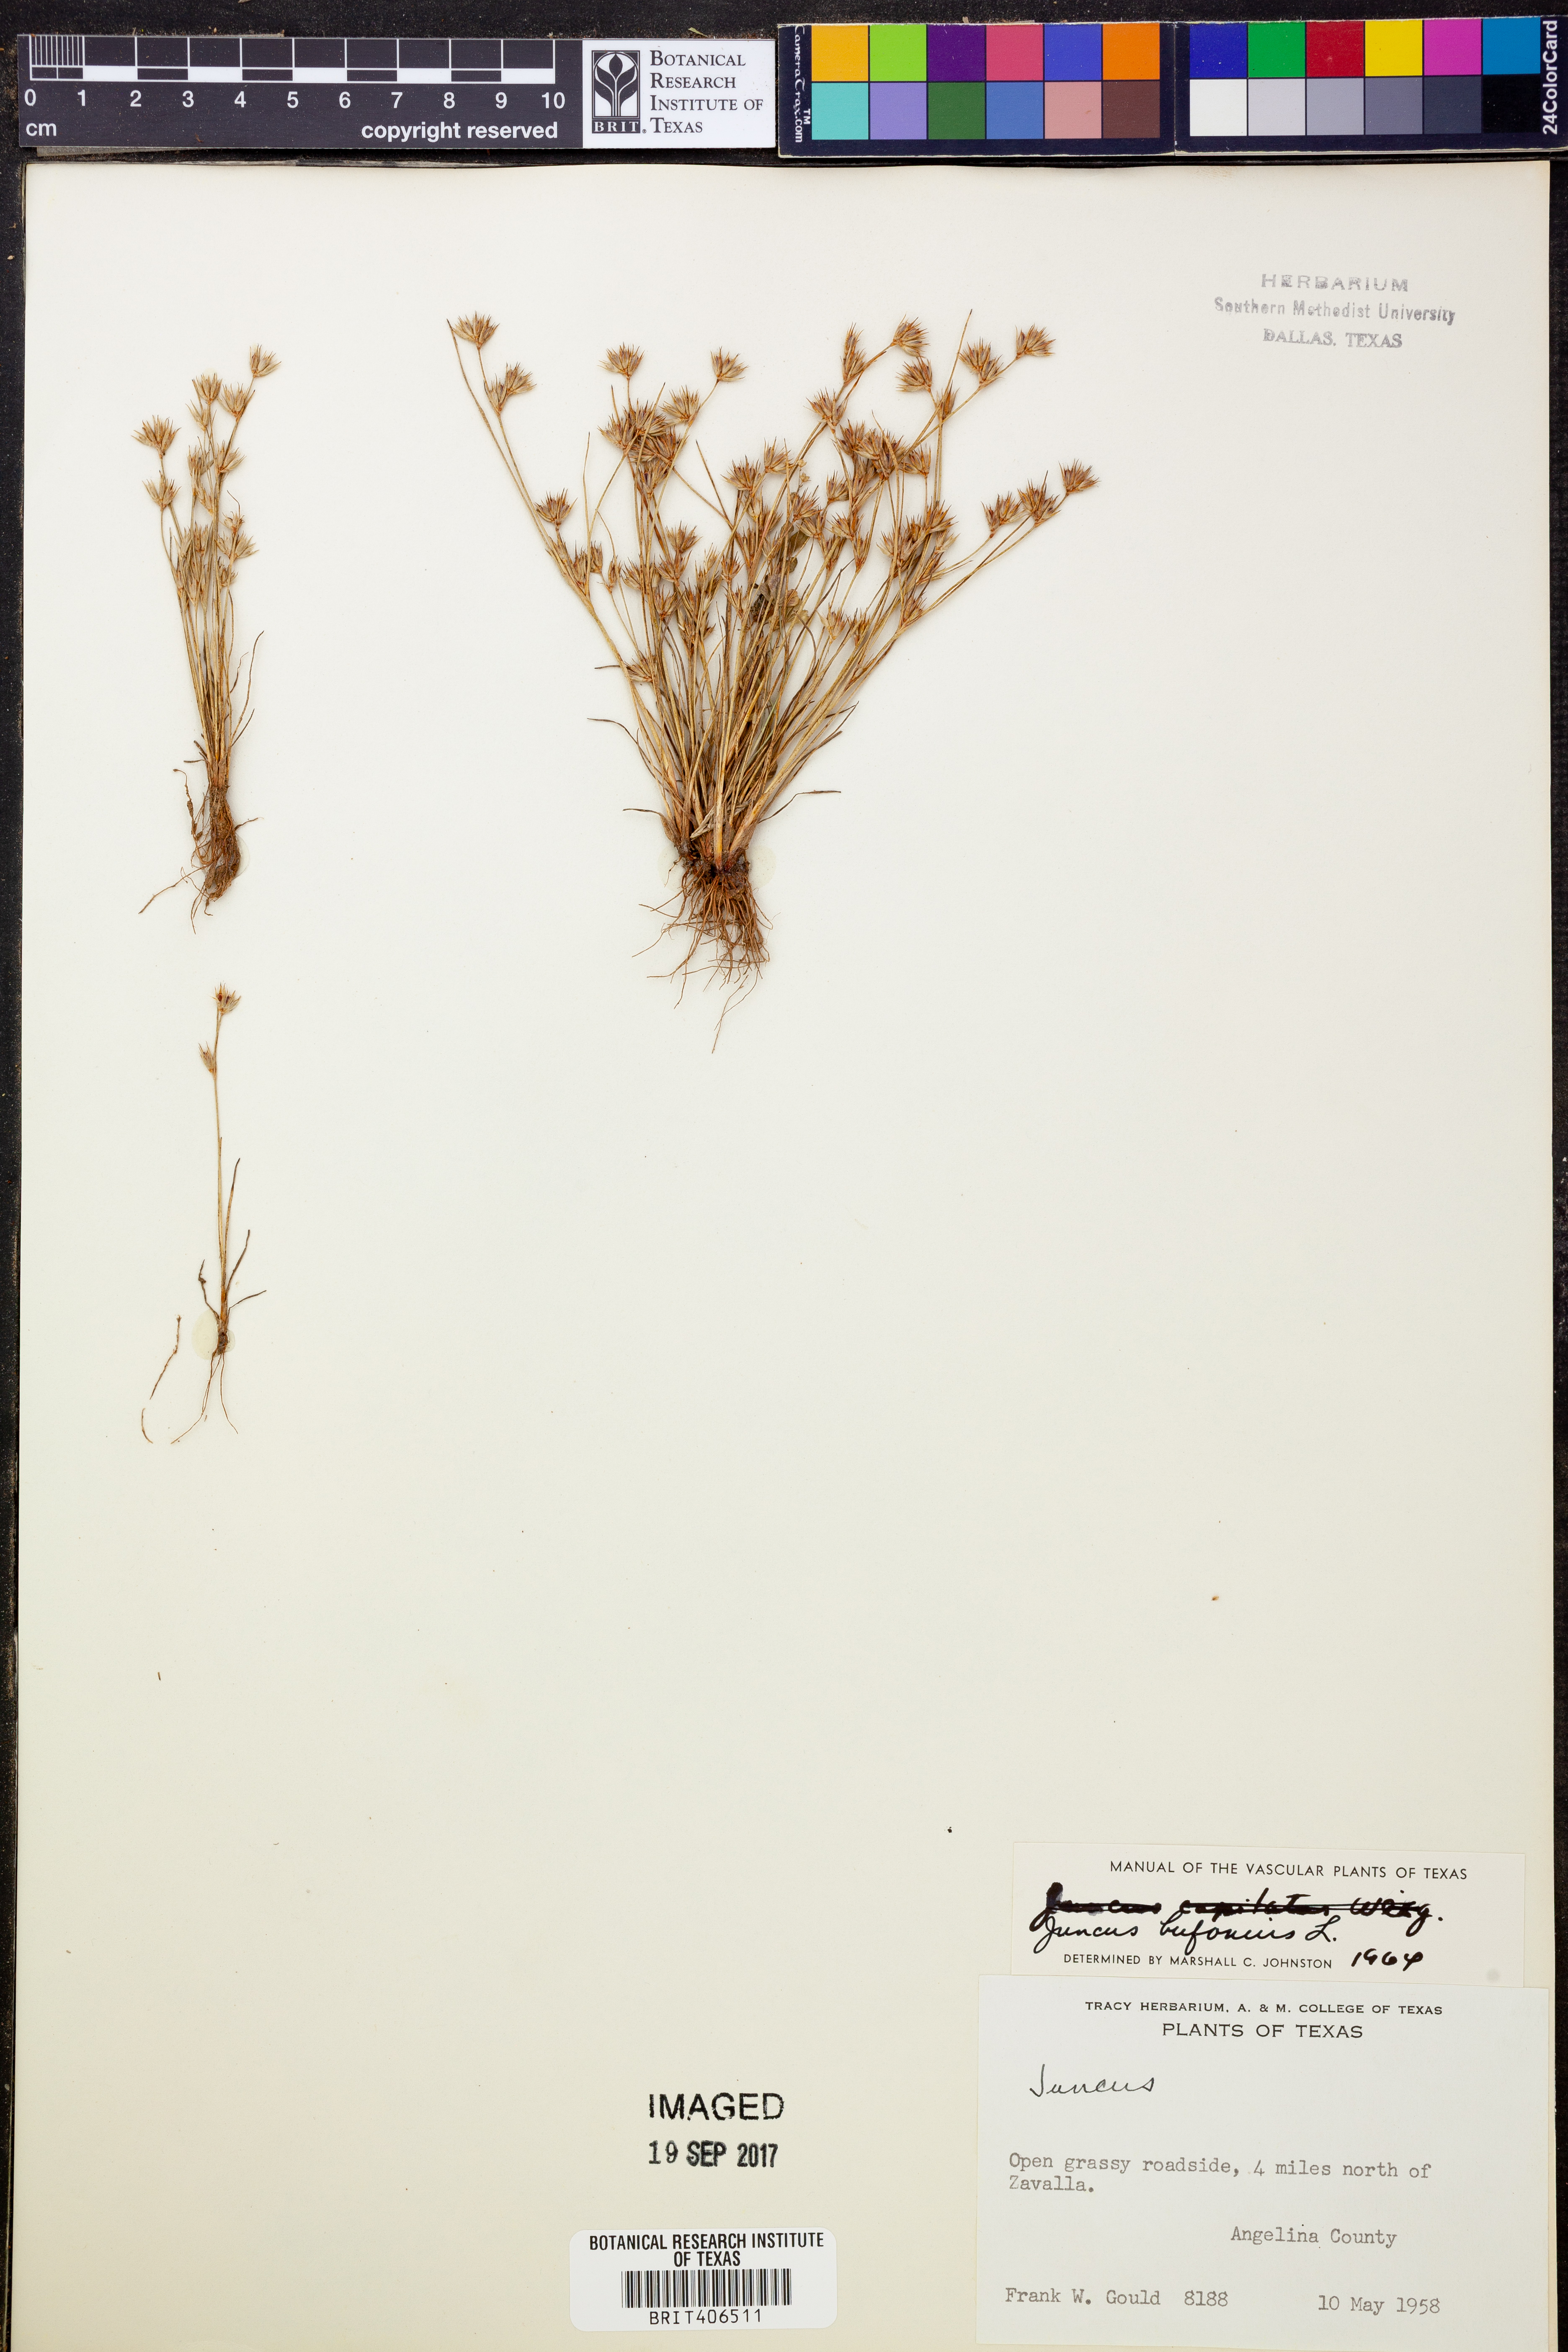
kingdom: Plantae
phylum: Tracheophyta
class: Liliopsida
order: Poales
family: Juncaceae
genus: Juncus
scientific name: Juncus bufonius
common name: Toad rush
